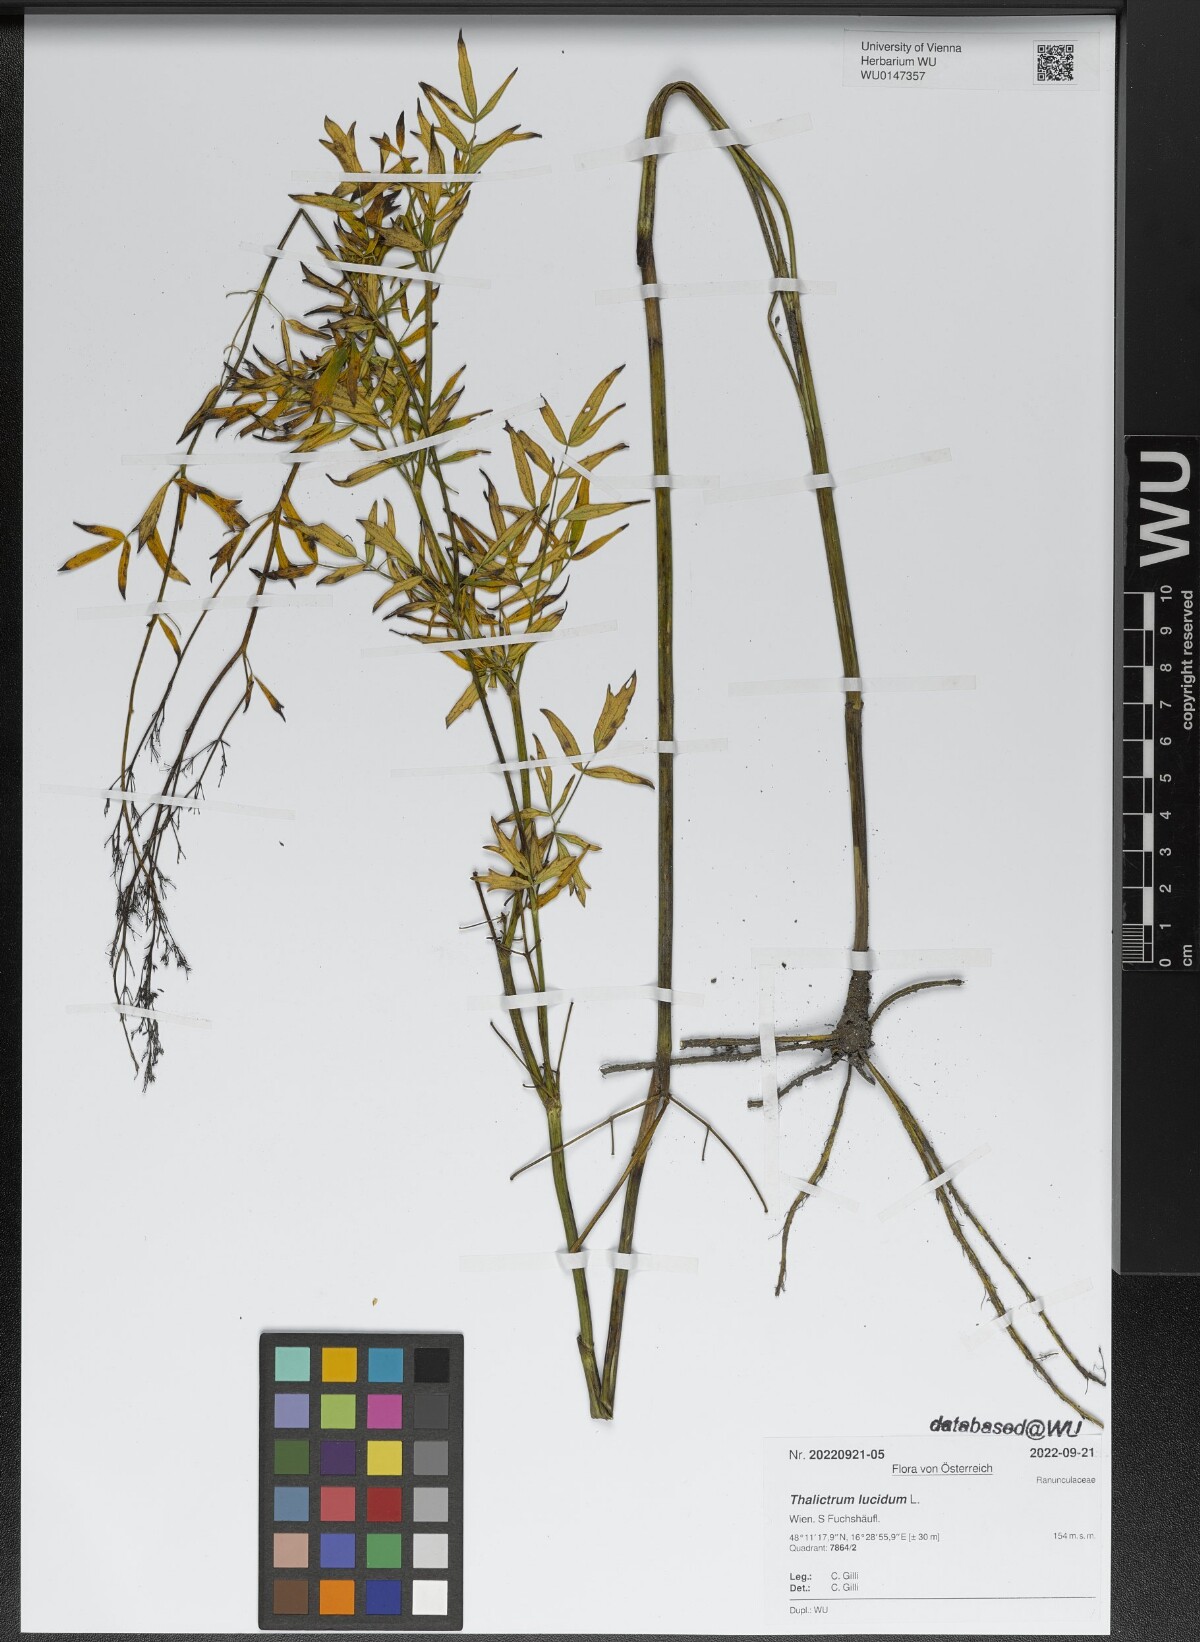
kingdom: Plantae
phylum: Tracheophyta
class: Magnoliopsida
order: Ranunculales
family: Ranunculaceae
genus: Thalictrum
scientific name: Thalictrum lucidum
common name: Shining meadow-rue
